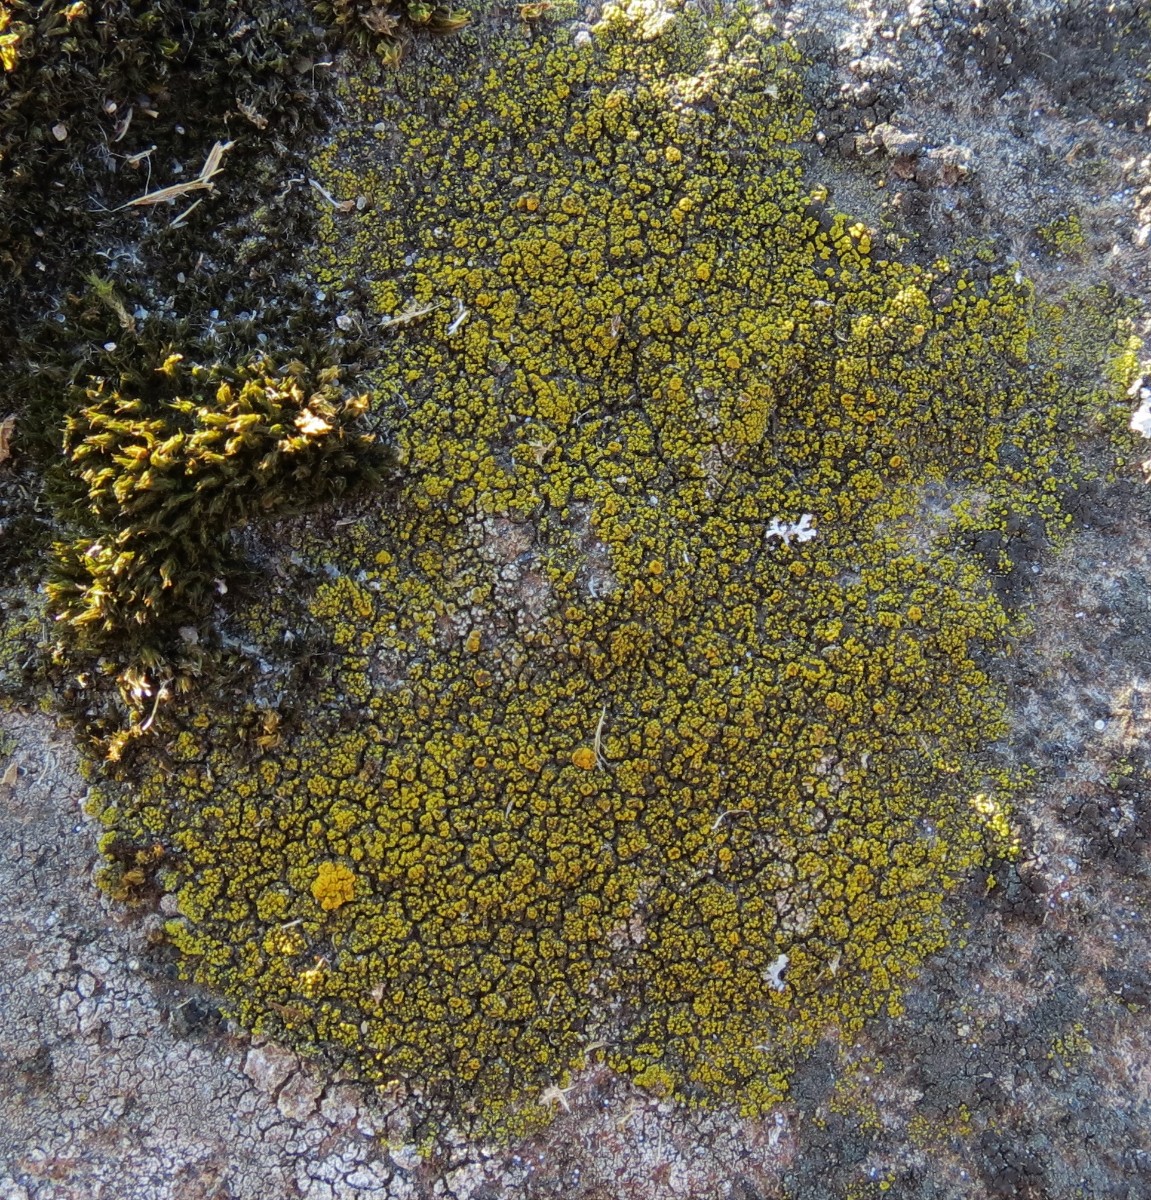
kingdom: Fungi
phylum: Ascomycota
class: Candelariomycetes
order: Candelariales
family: Candelariaceae
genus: Candelariella
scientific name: Candelariella vitellina
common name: almindelig æggeblommelav
